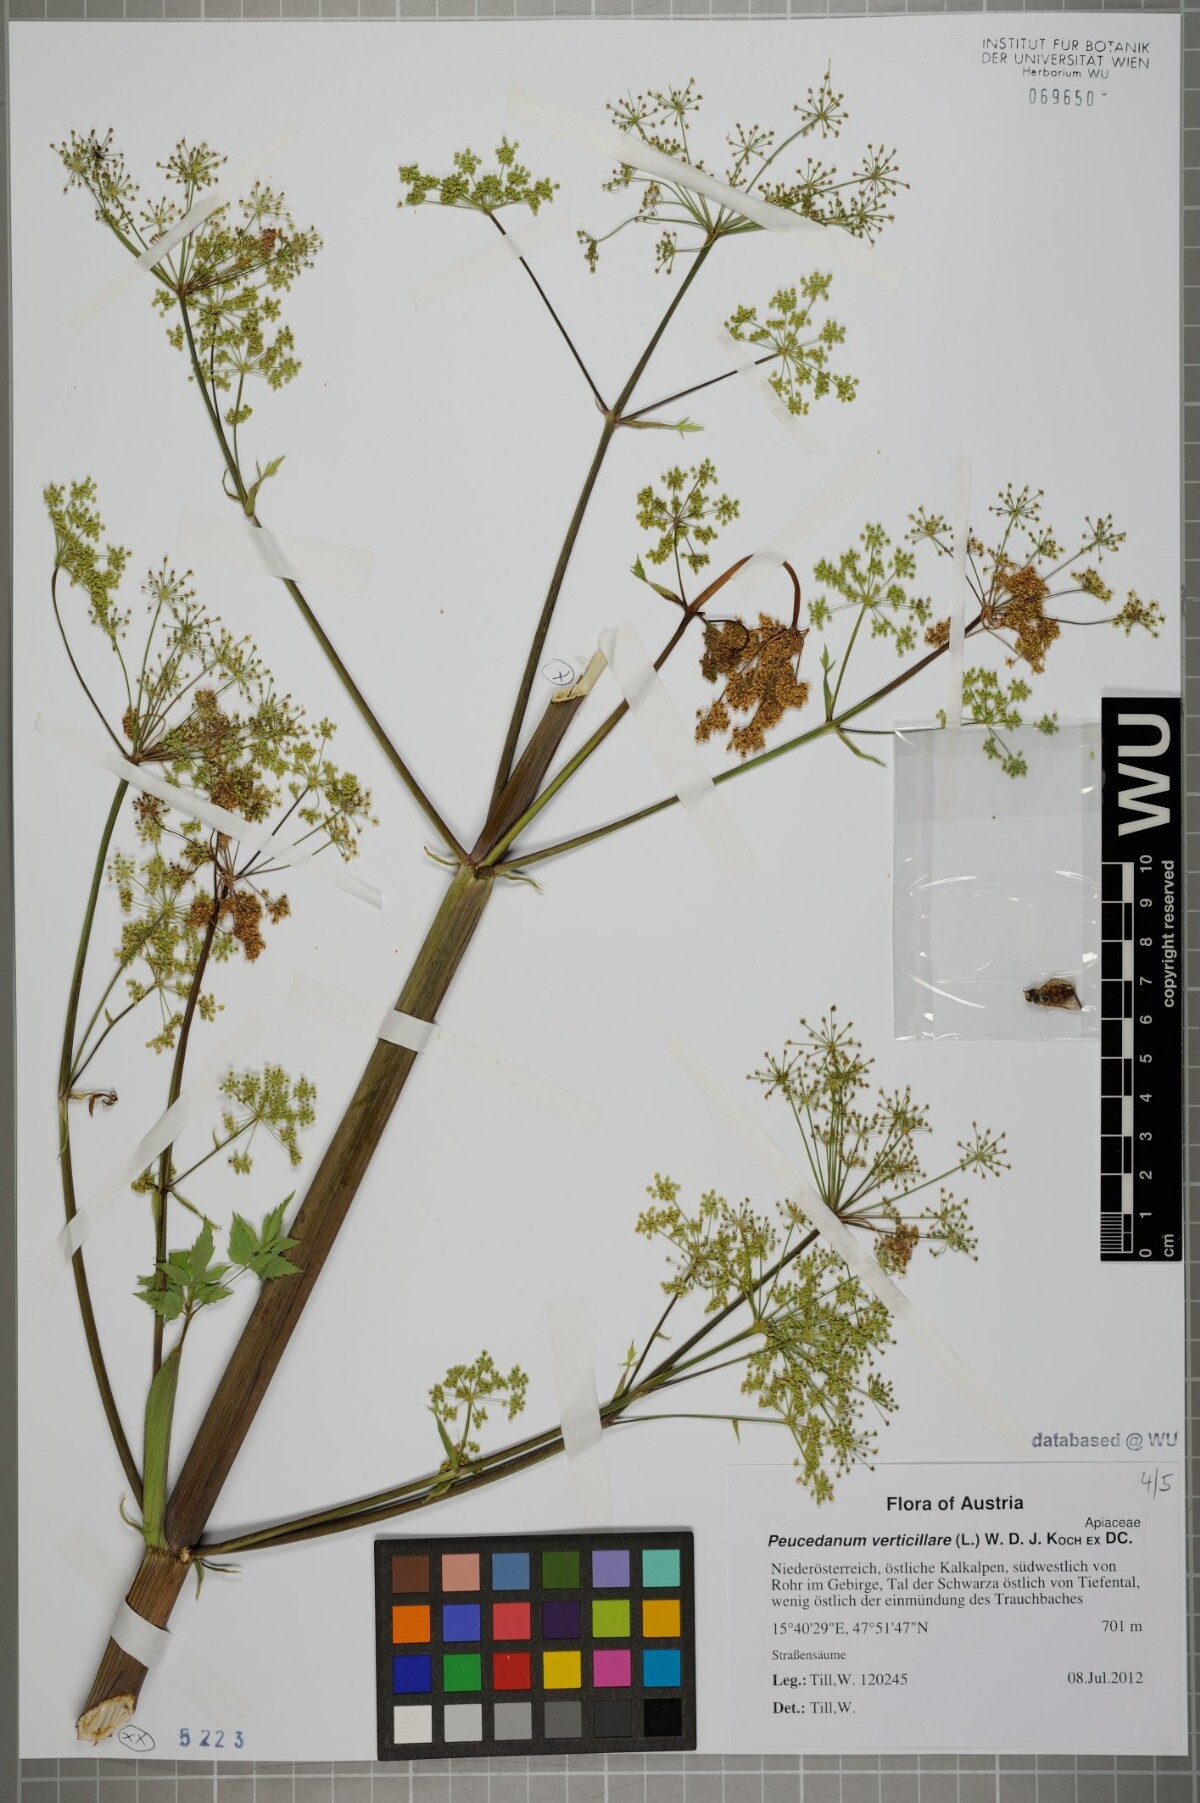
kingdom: Plantae
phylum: Tracheophyta
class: Magnoliopsida
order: Apiales
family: Apiaceae
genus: Tommasinia
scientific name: Tommasinia altissima
